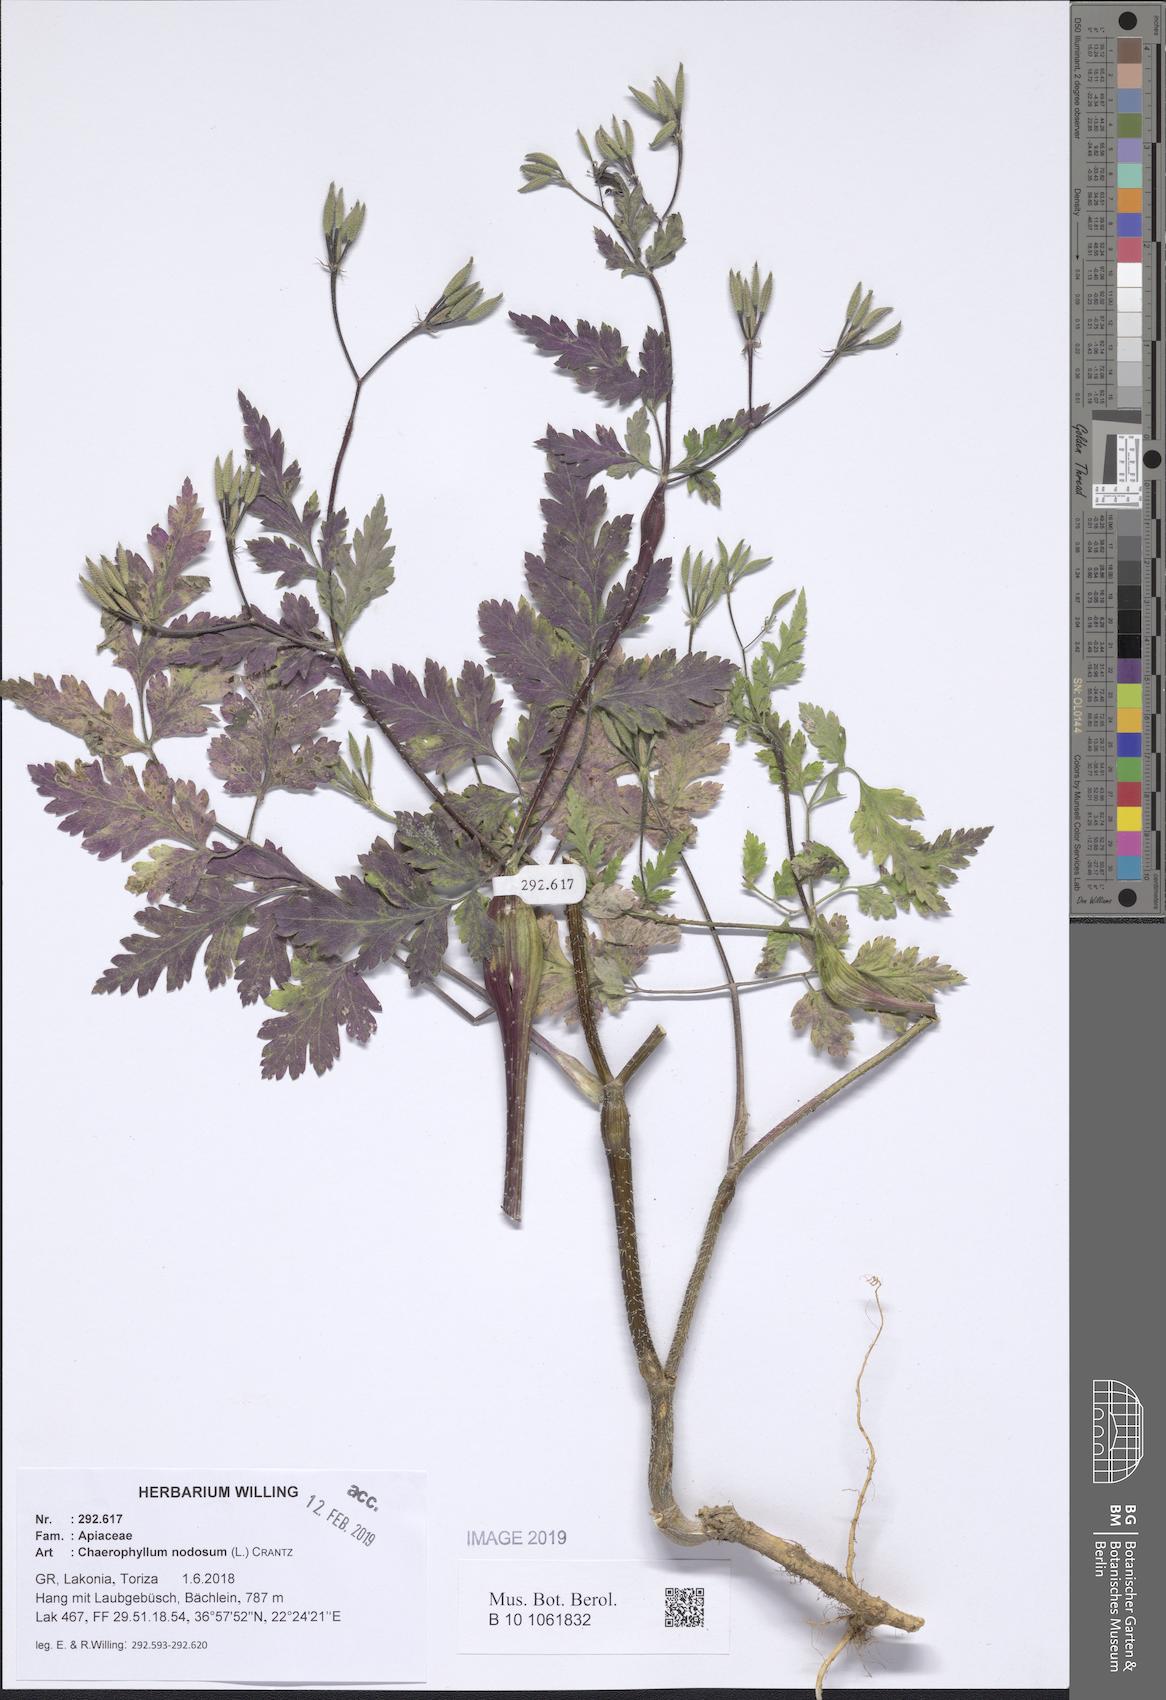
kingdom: Plantae
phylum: Tracheophyta
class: Magnoliopsida
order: Apiales
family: Apiaceae
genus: Chaerophyllum
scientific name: Chaerophyllum nodosum
